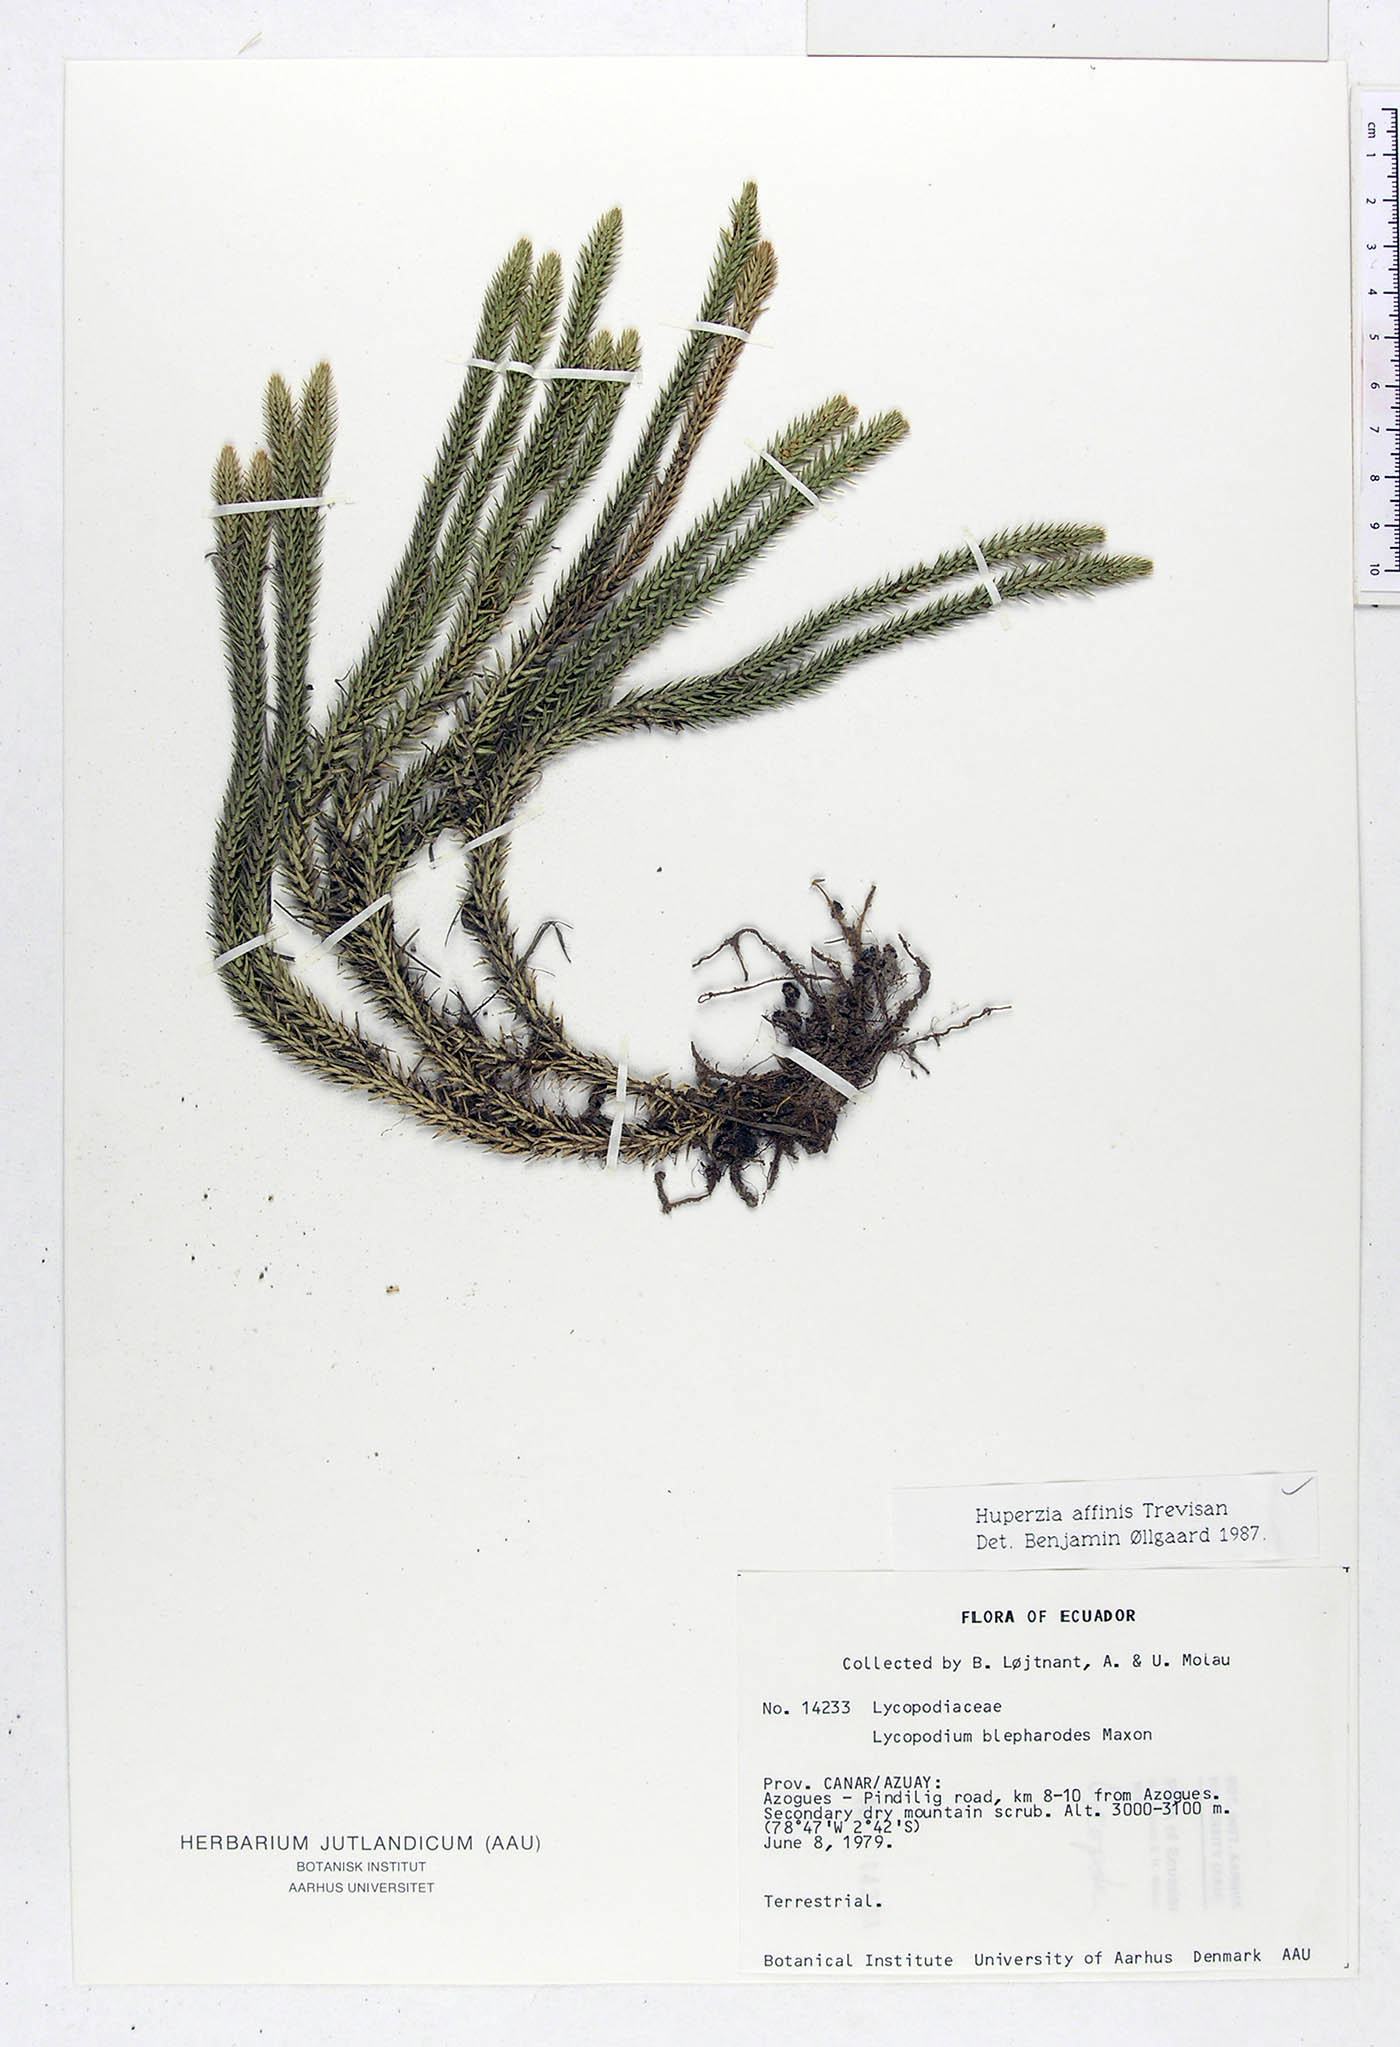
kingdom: Plantae
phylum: Tracheophyta
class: Lycopodiopsida
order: Lycopodiales
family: Lycopodiaceae
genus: Phlegmariurus
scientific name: Phlegmariurus affinis
